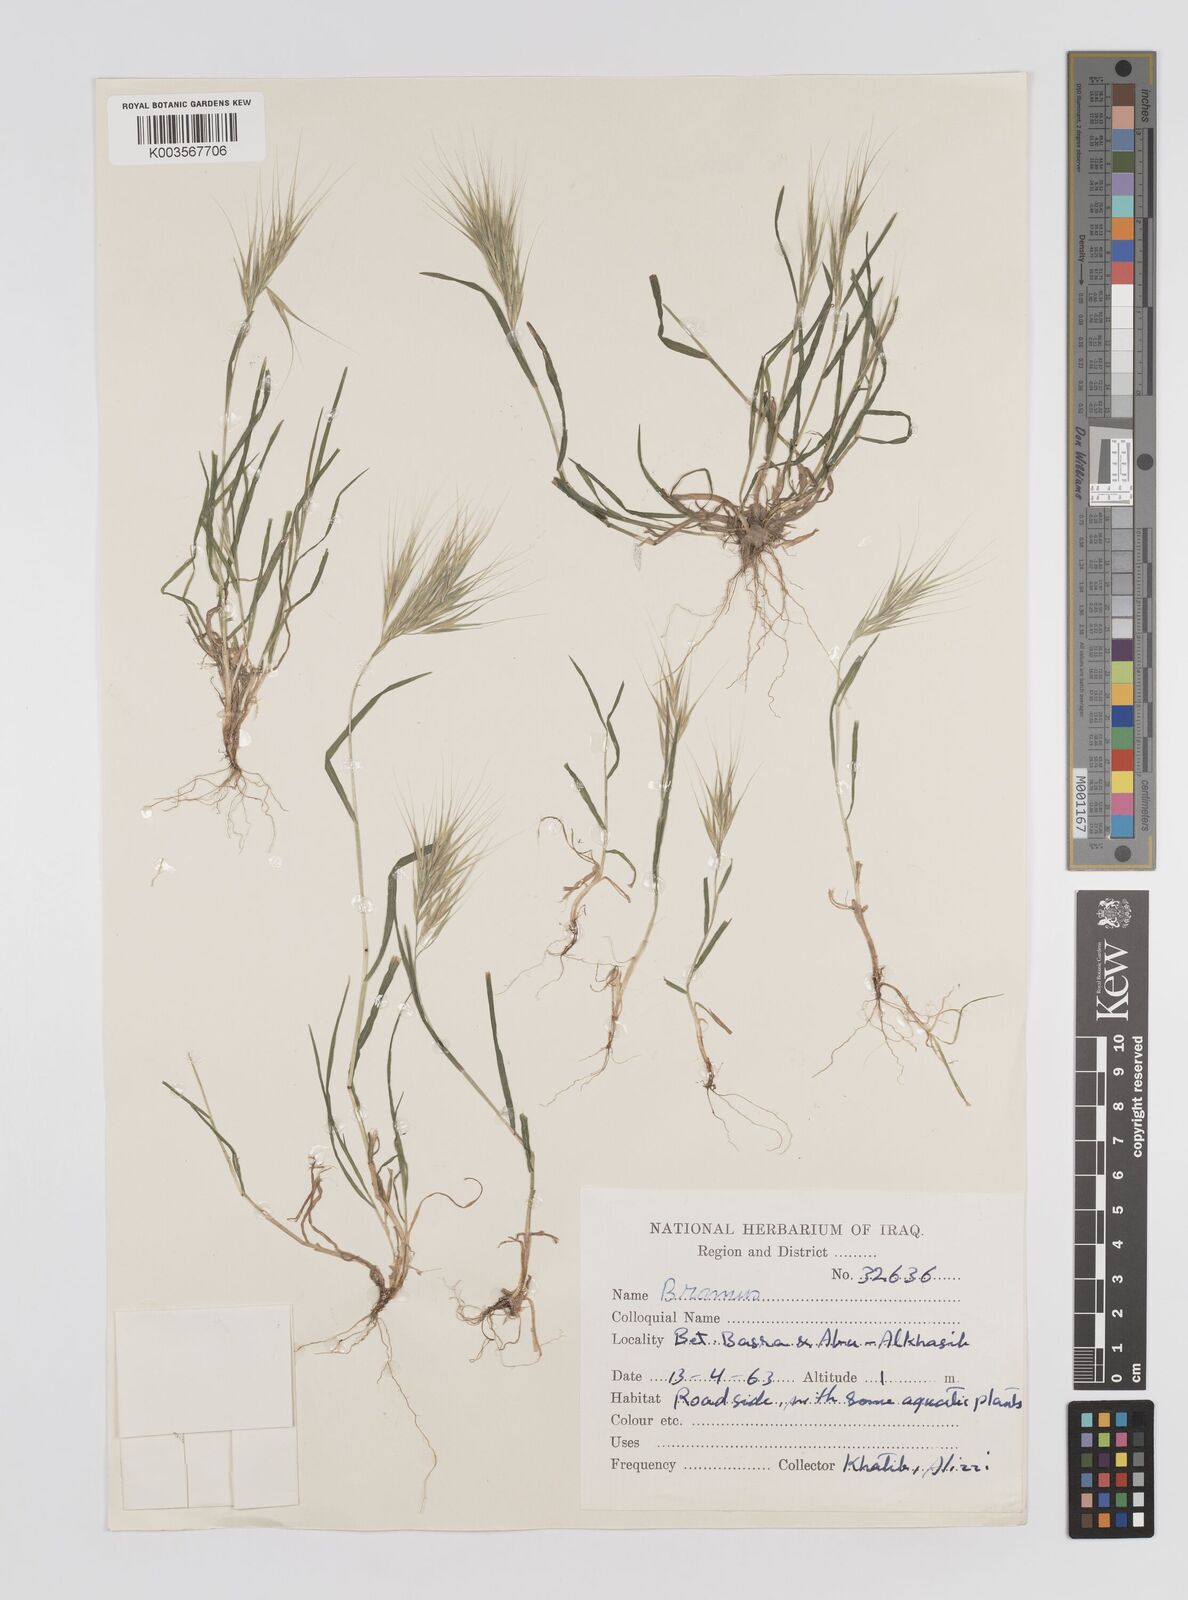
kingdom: Plantae
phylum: Tracheophyta
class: Liliopsida
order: Poales
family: Poaceae
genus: Bromus
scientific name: Bromus
